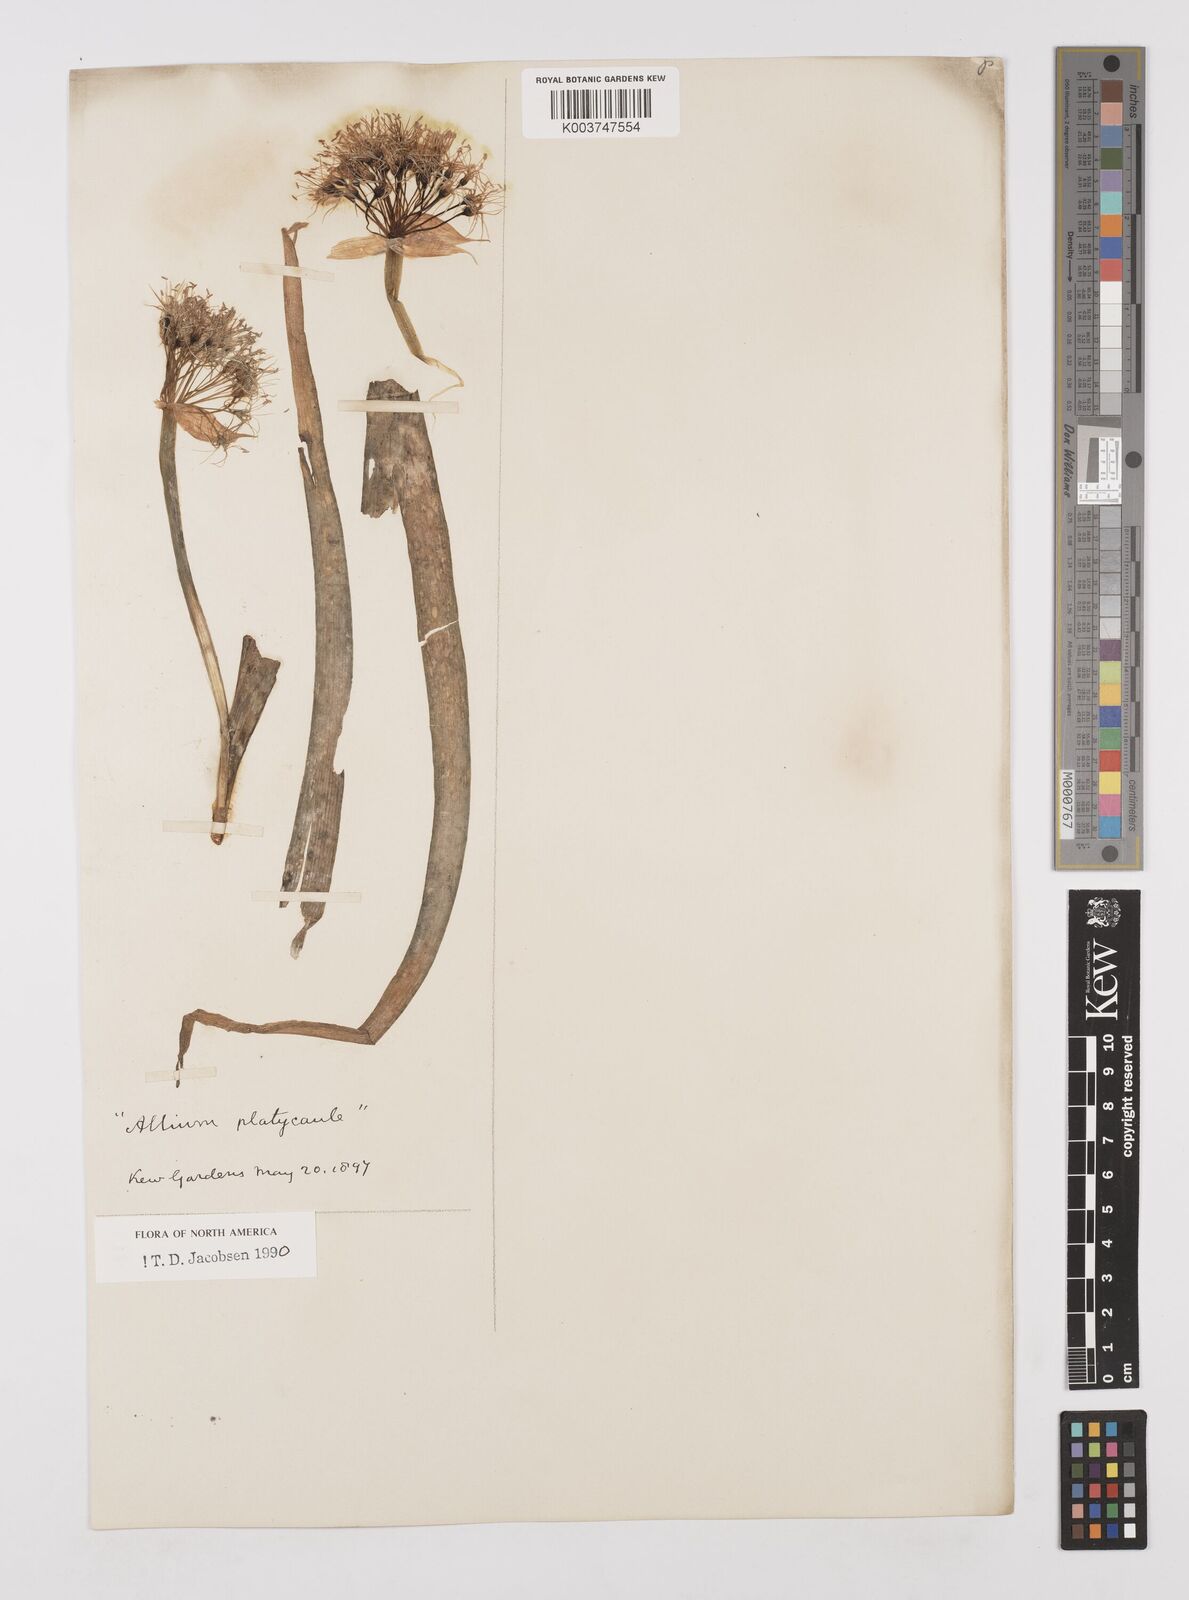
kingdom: Plantae
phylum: Tracheophyta
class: Liliopsida
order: Asparagales
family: Amaryllidaceae
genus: Allium
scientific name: Allium platycaule
